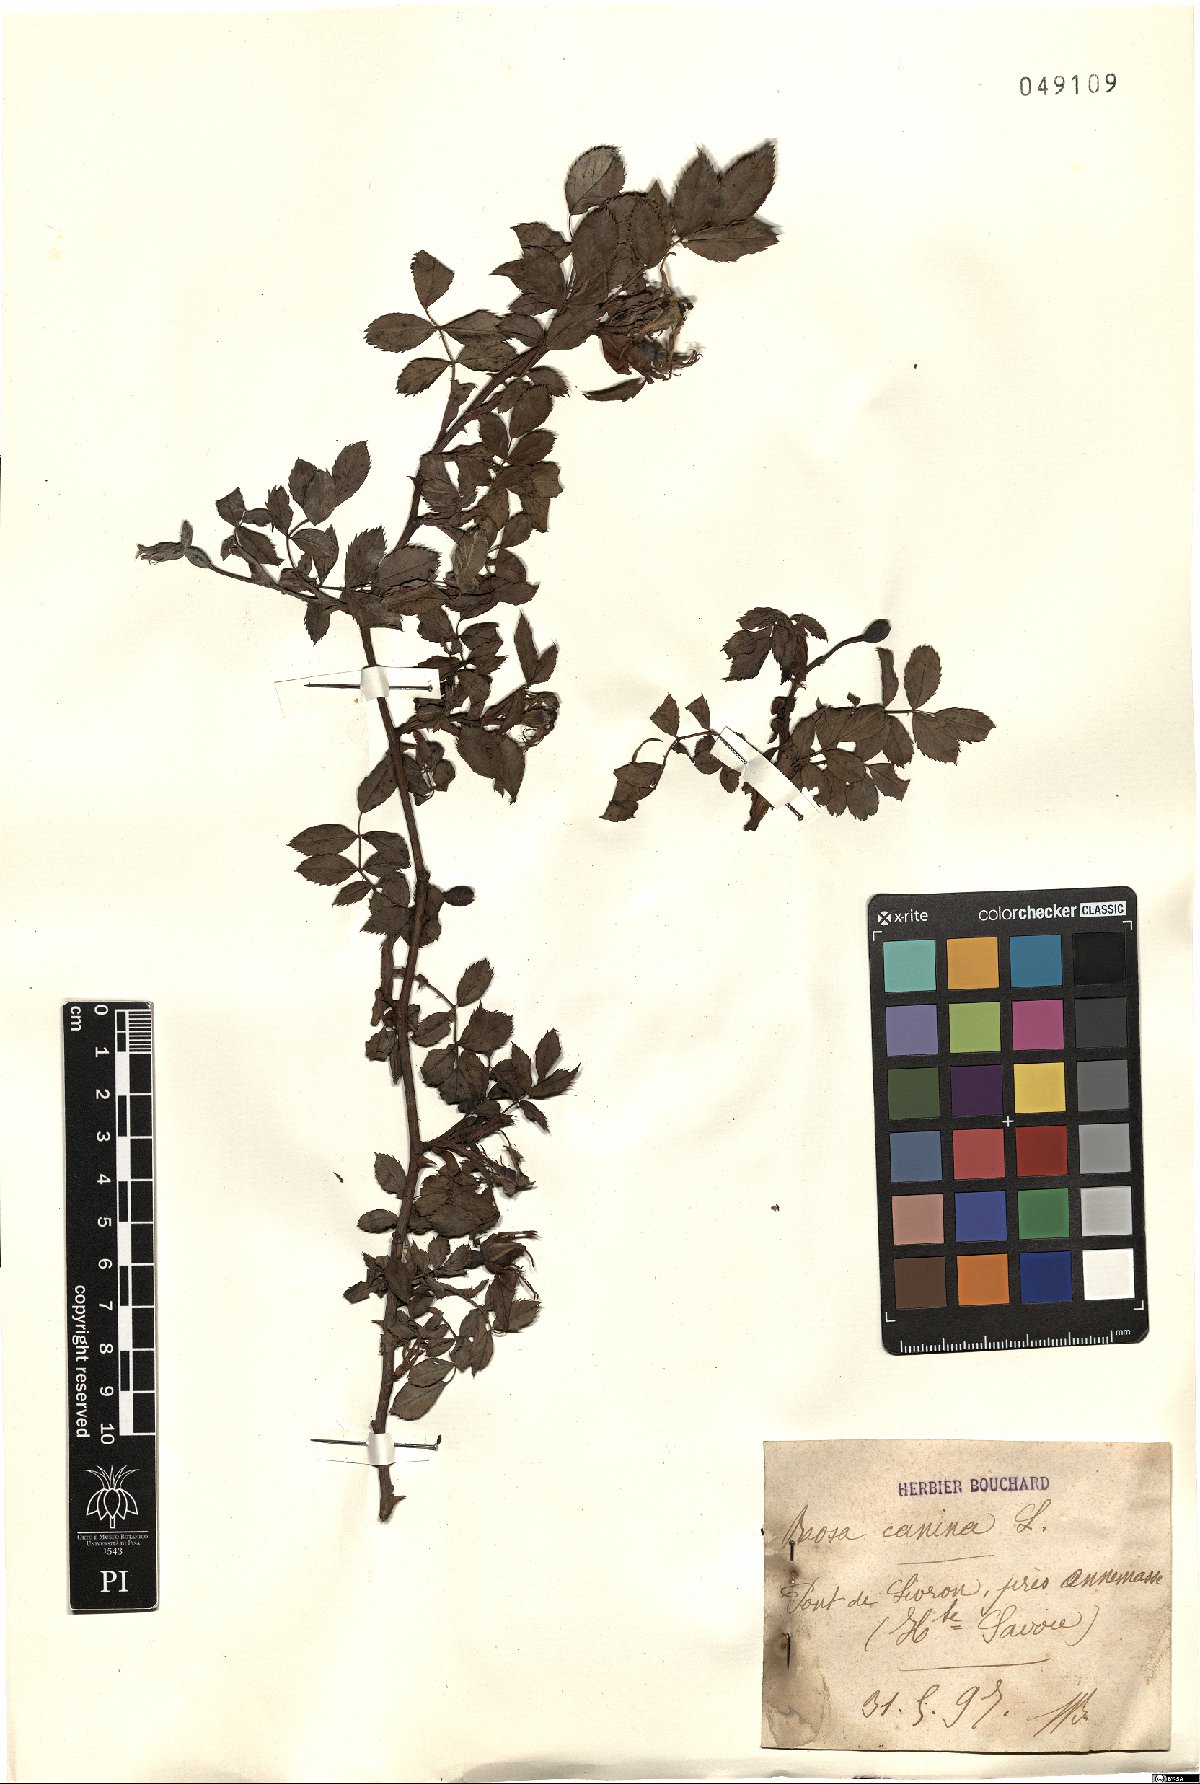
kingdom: Plantae
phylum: Tracheophyta
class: Magnoliopsida
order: Rosales
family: Rosaceae
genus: Rosa
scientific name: Rosa canina
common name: Dog rose
